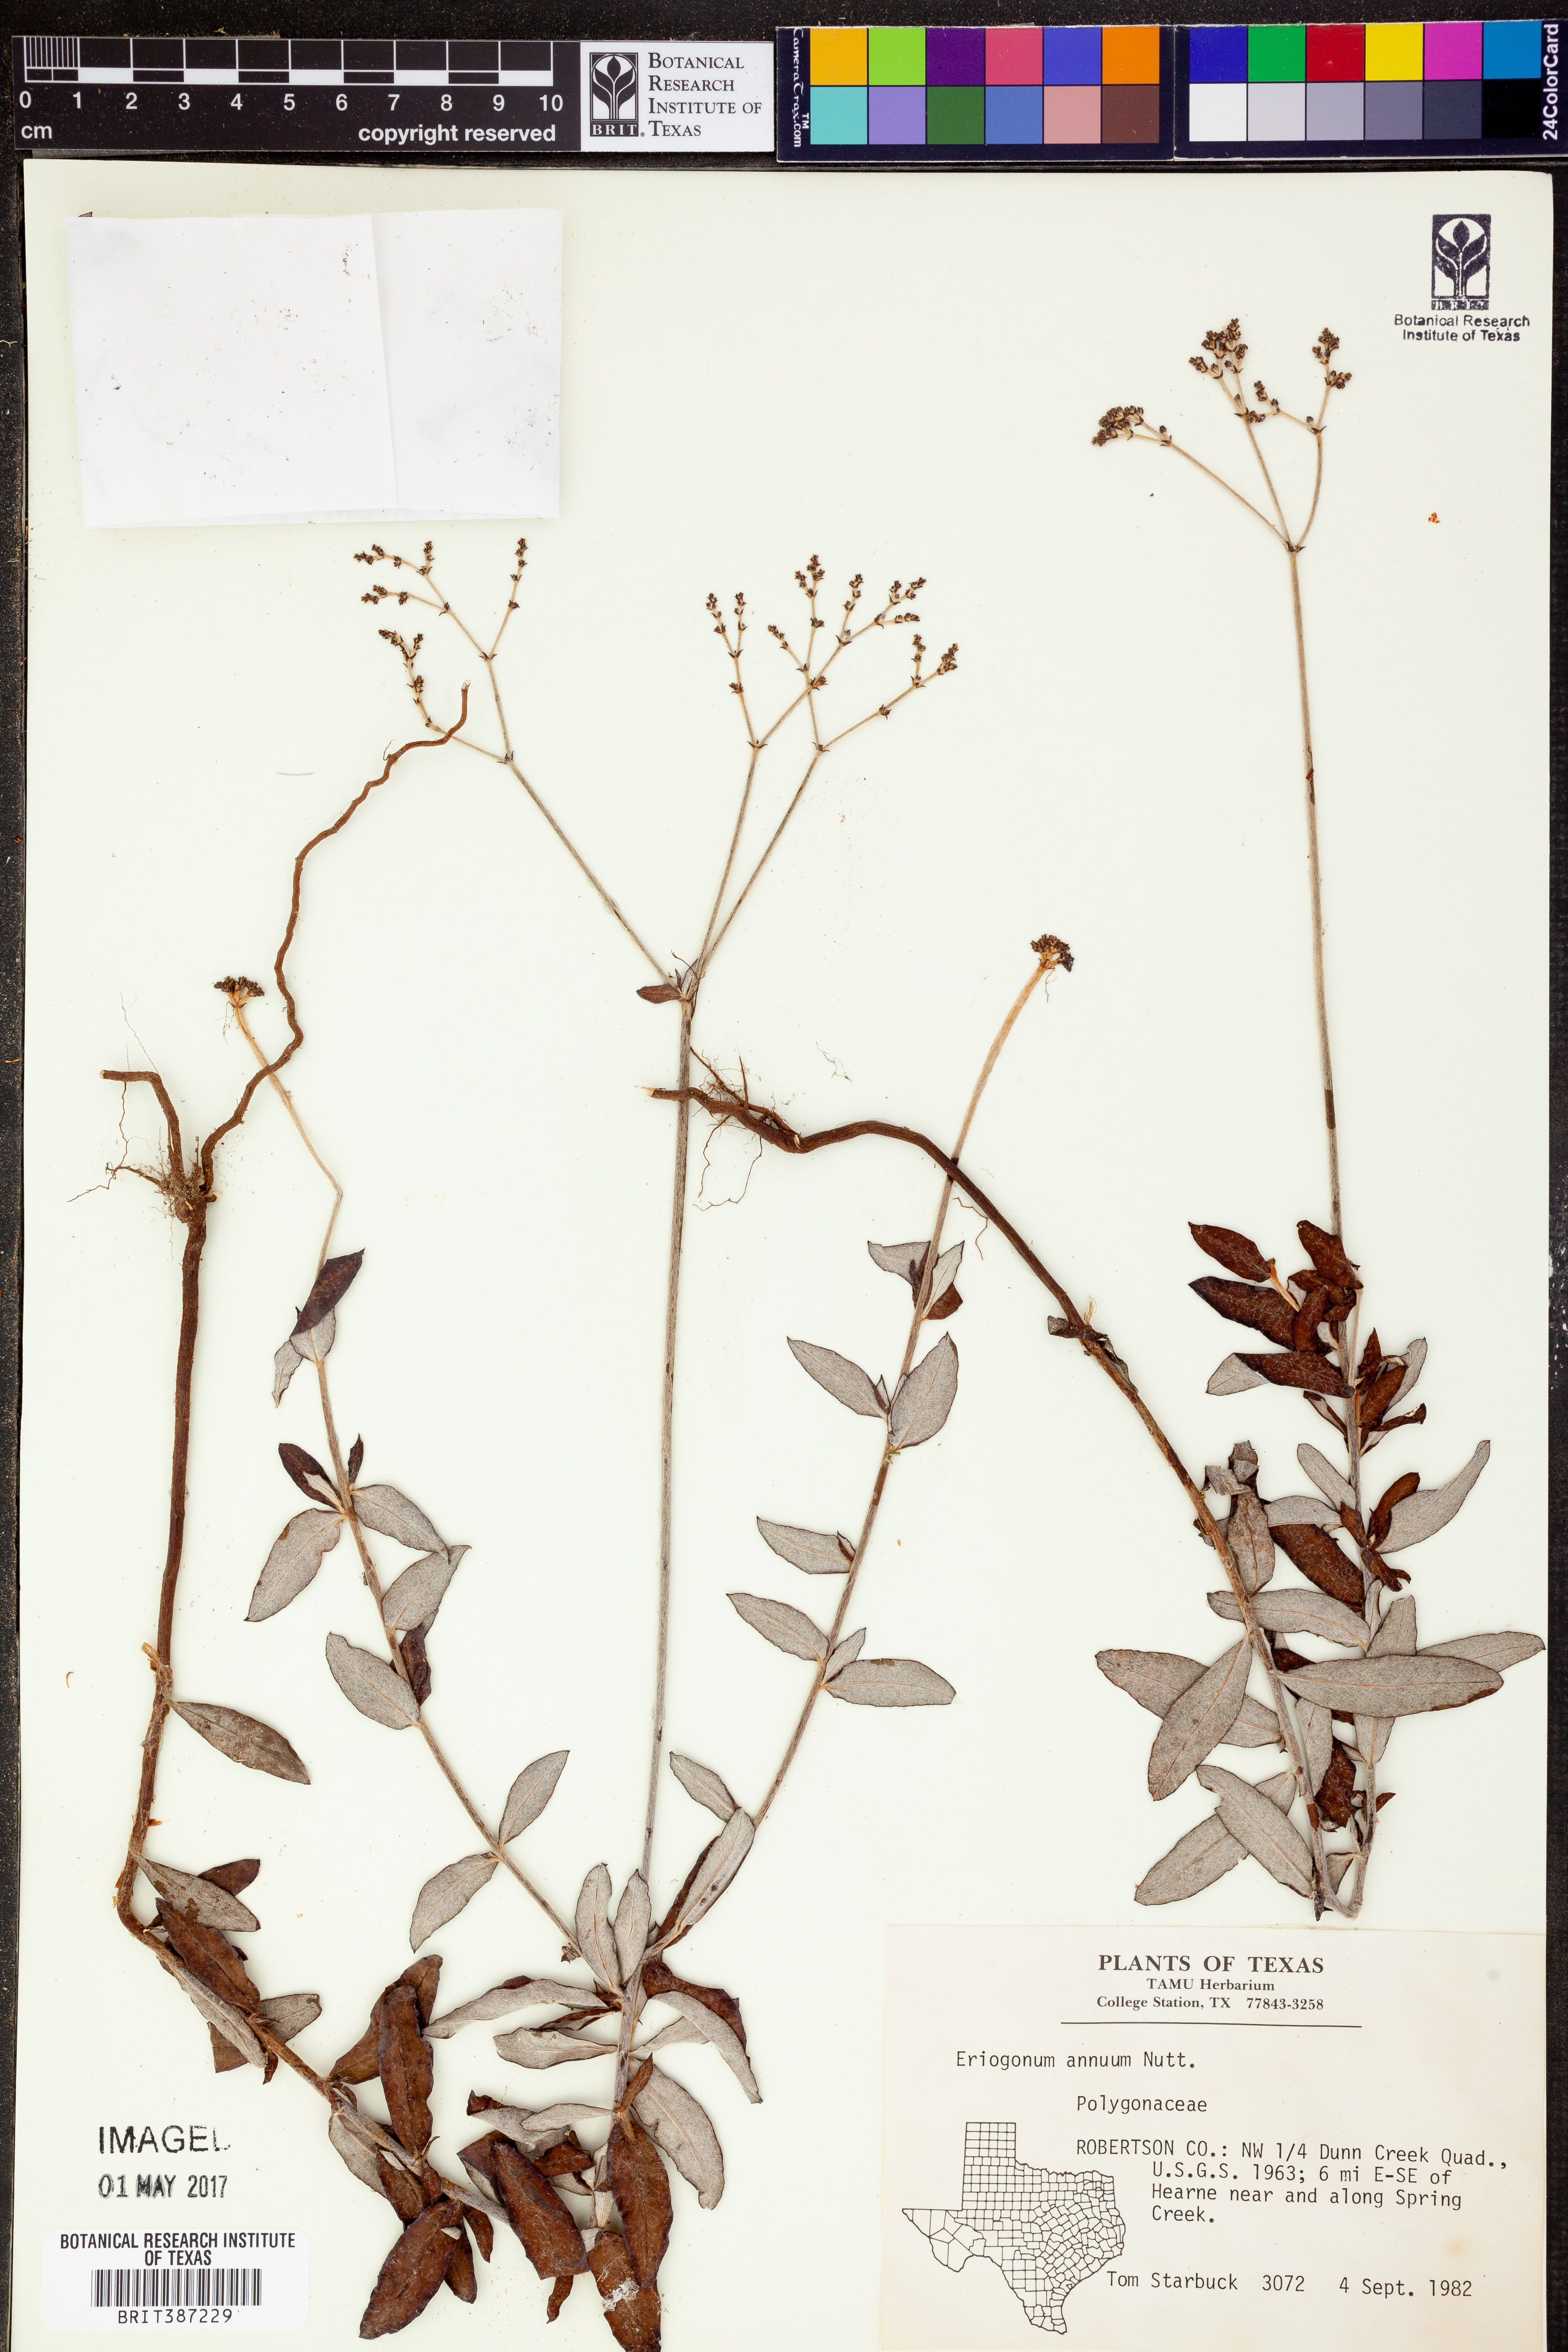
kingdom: Plantae
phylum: Tracheophyta
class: Magnoliopsida
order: Caryophyllales
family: Polygonaceae
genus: Eriogonum
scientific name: Eriogonum annuum
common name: Annual wild buckwheat
